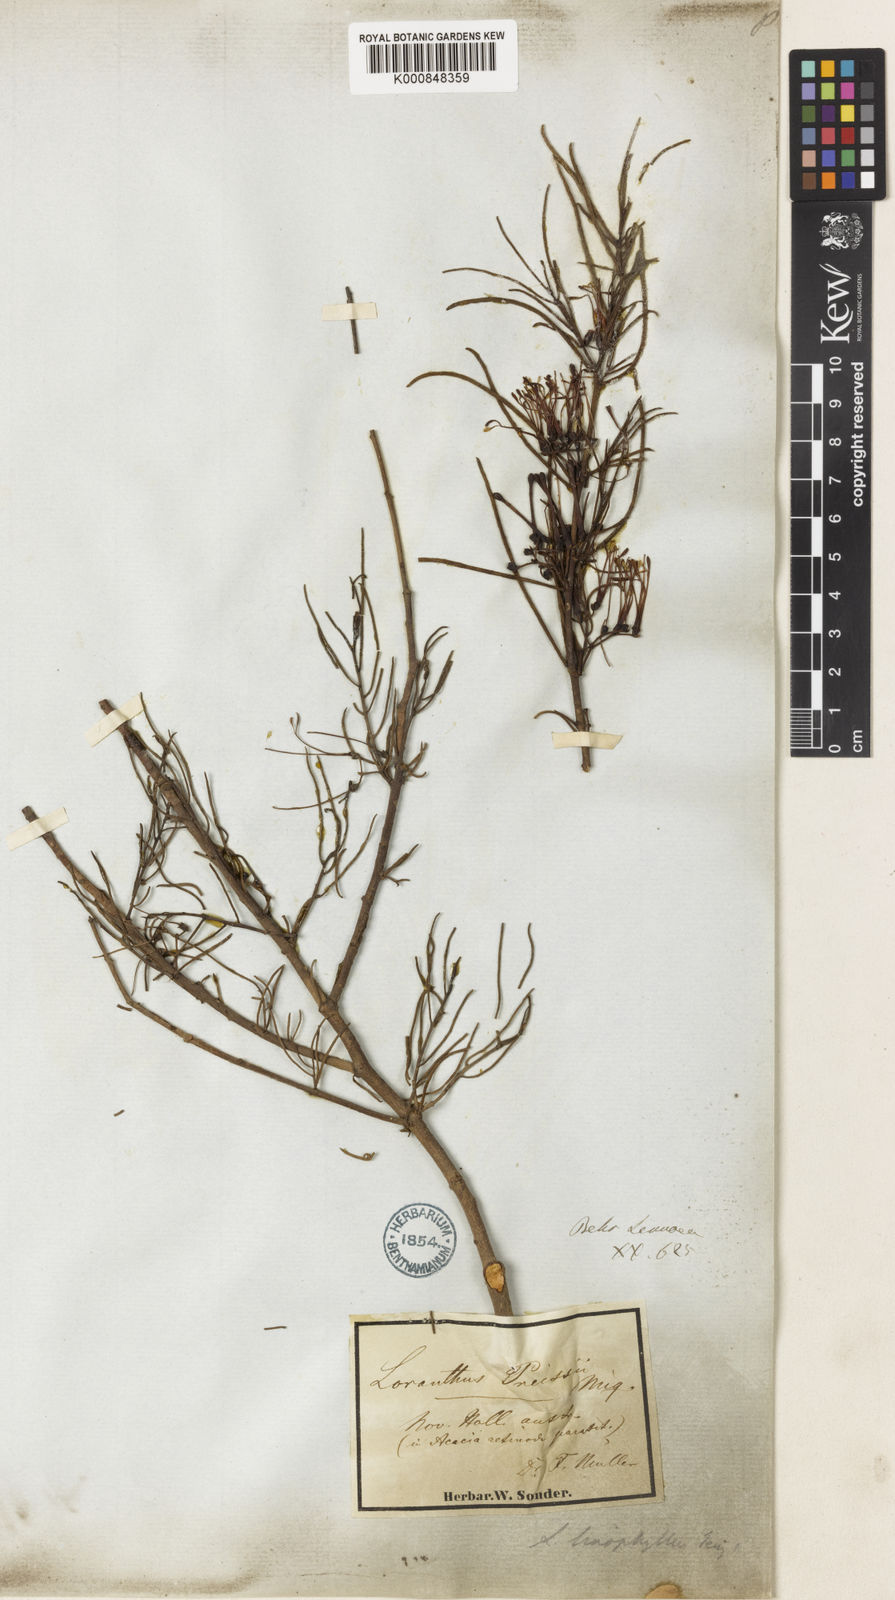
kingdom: Plantae
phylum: Tracheophyta
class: Magnoliopsida
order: Santalales
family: Loranthaceae
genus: Amyema
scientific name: Amyema preissii
